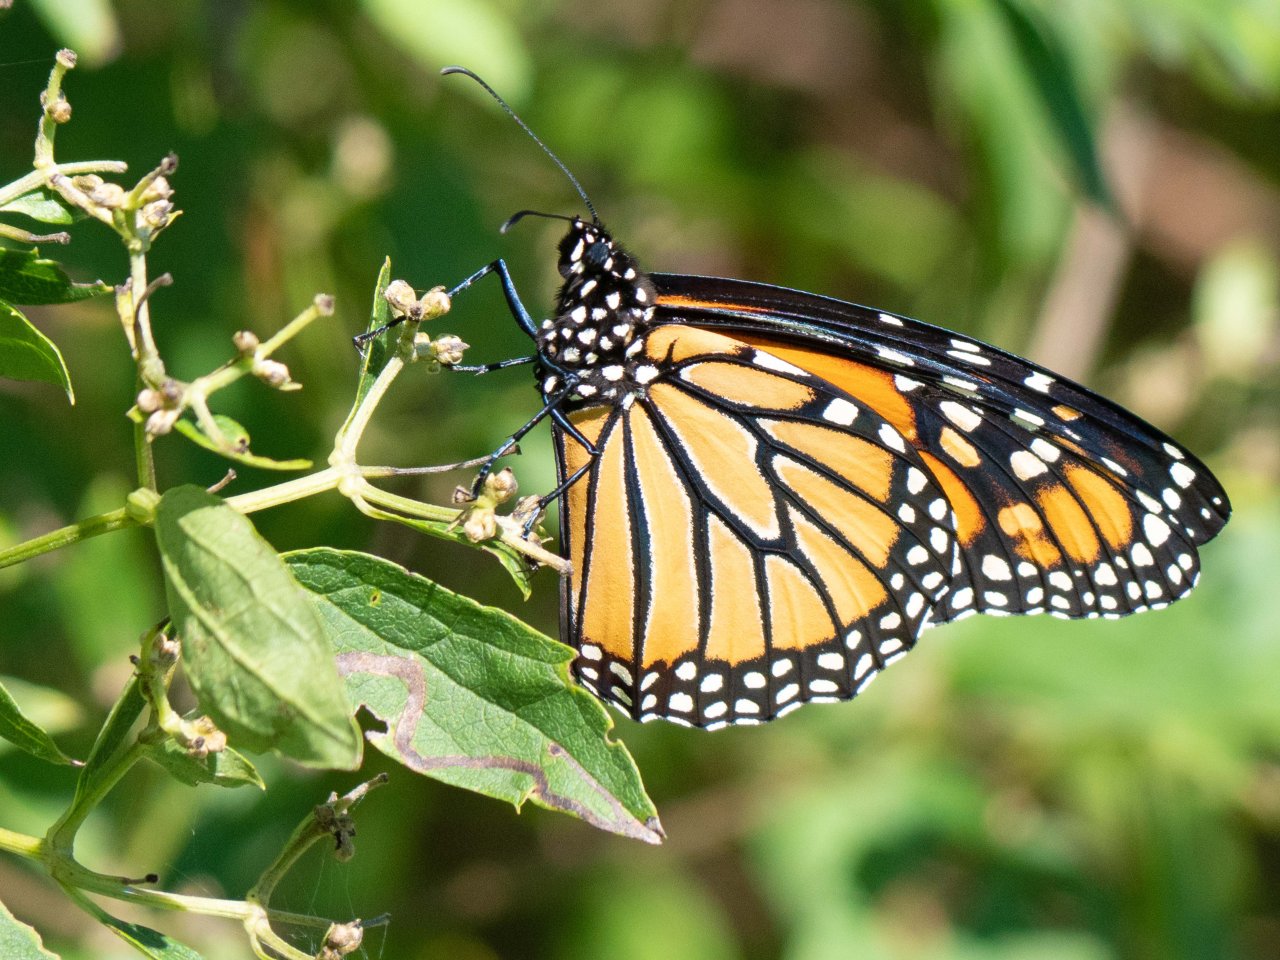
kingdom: Animalia
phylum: Arthropoda
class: Insecta
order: Lepidoptera
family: Nymphalidae
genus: Danaus
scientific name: Danaus plexippus
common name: Monarch
